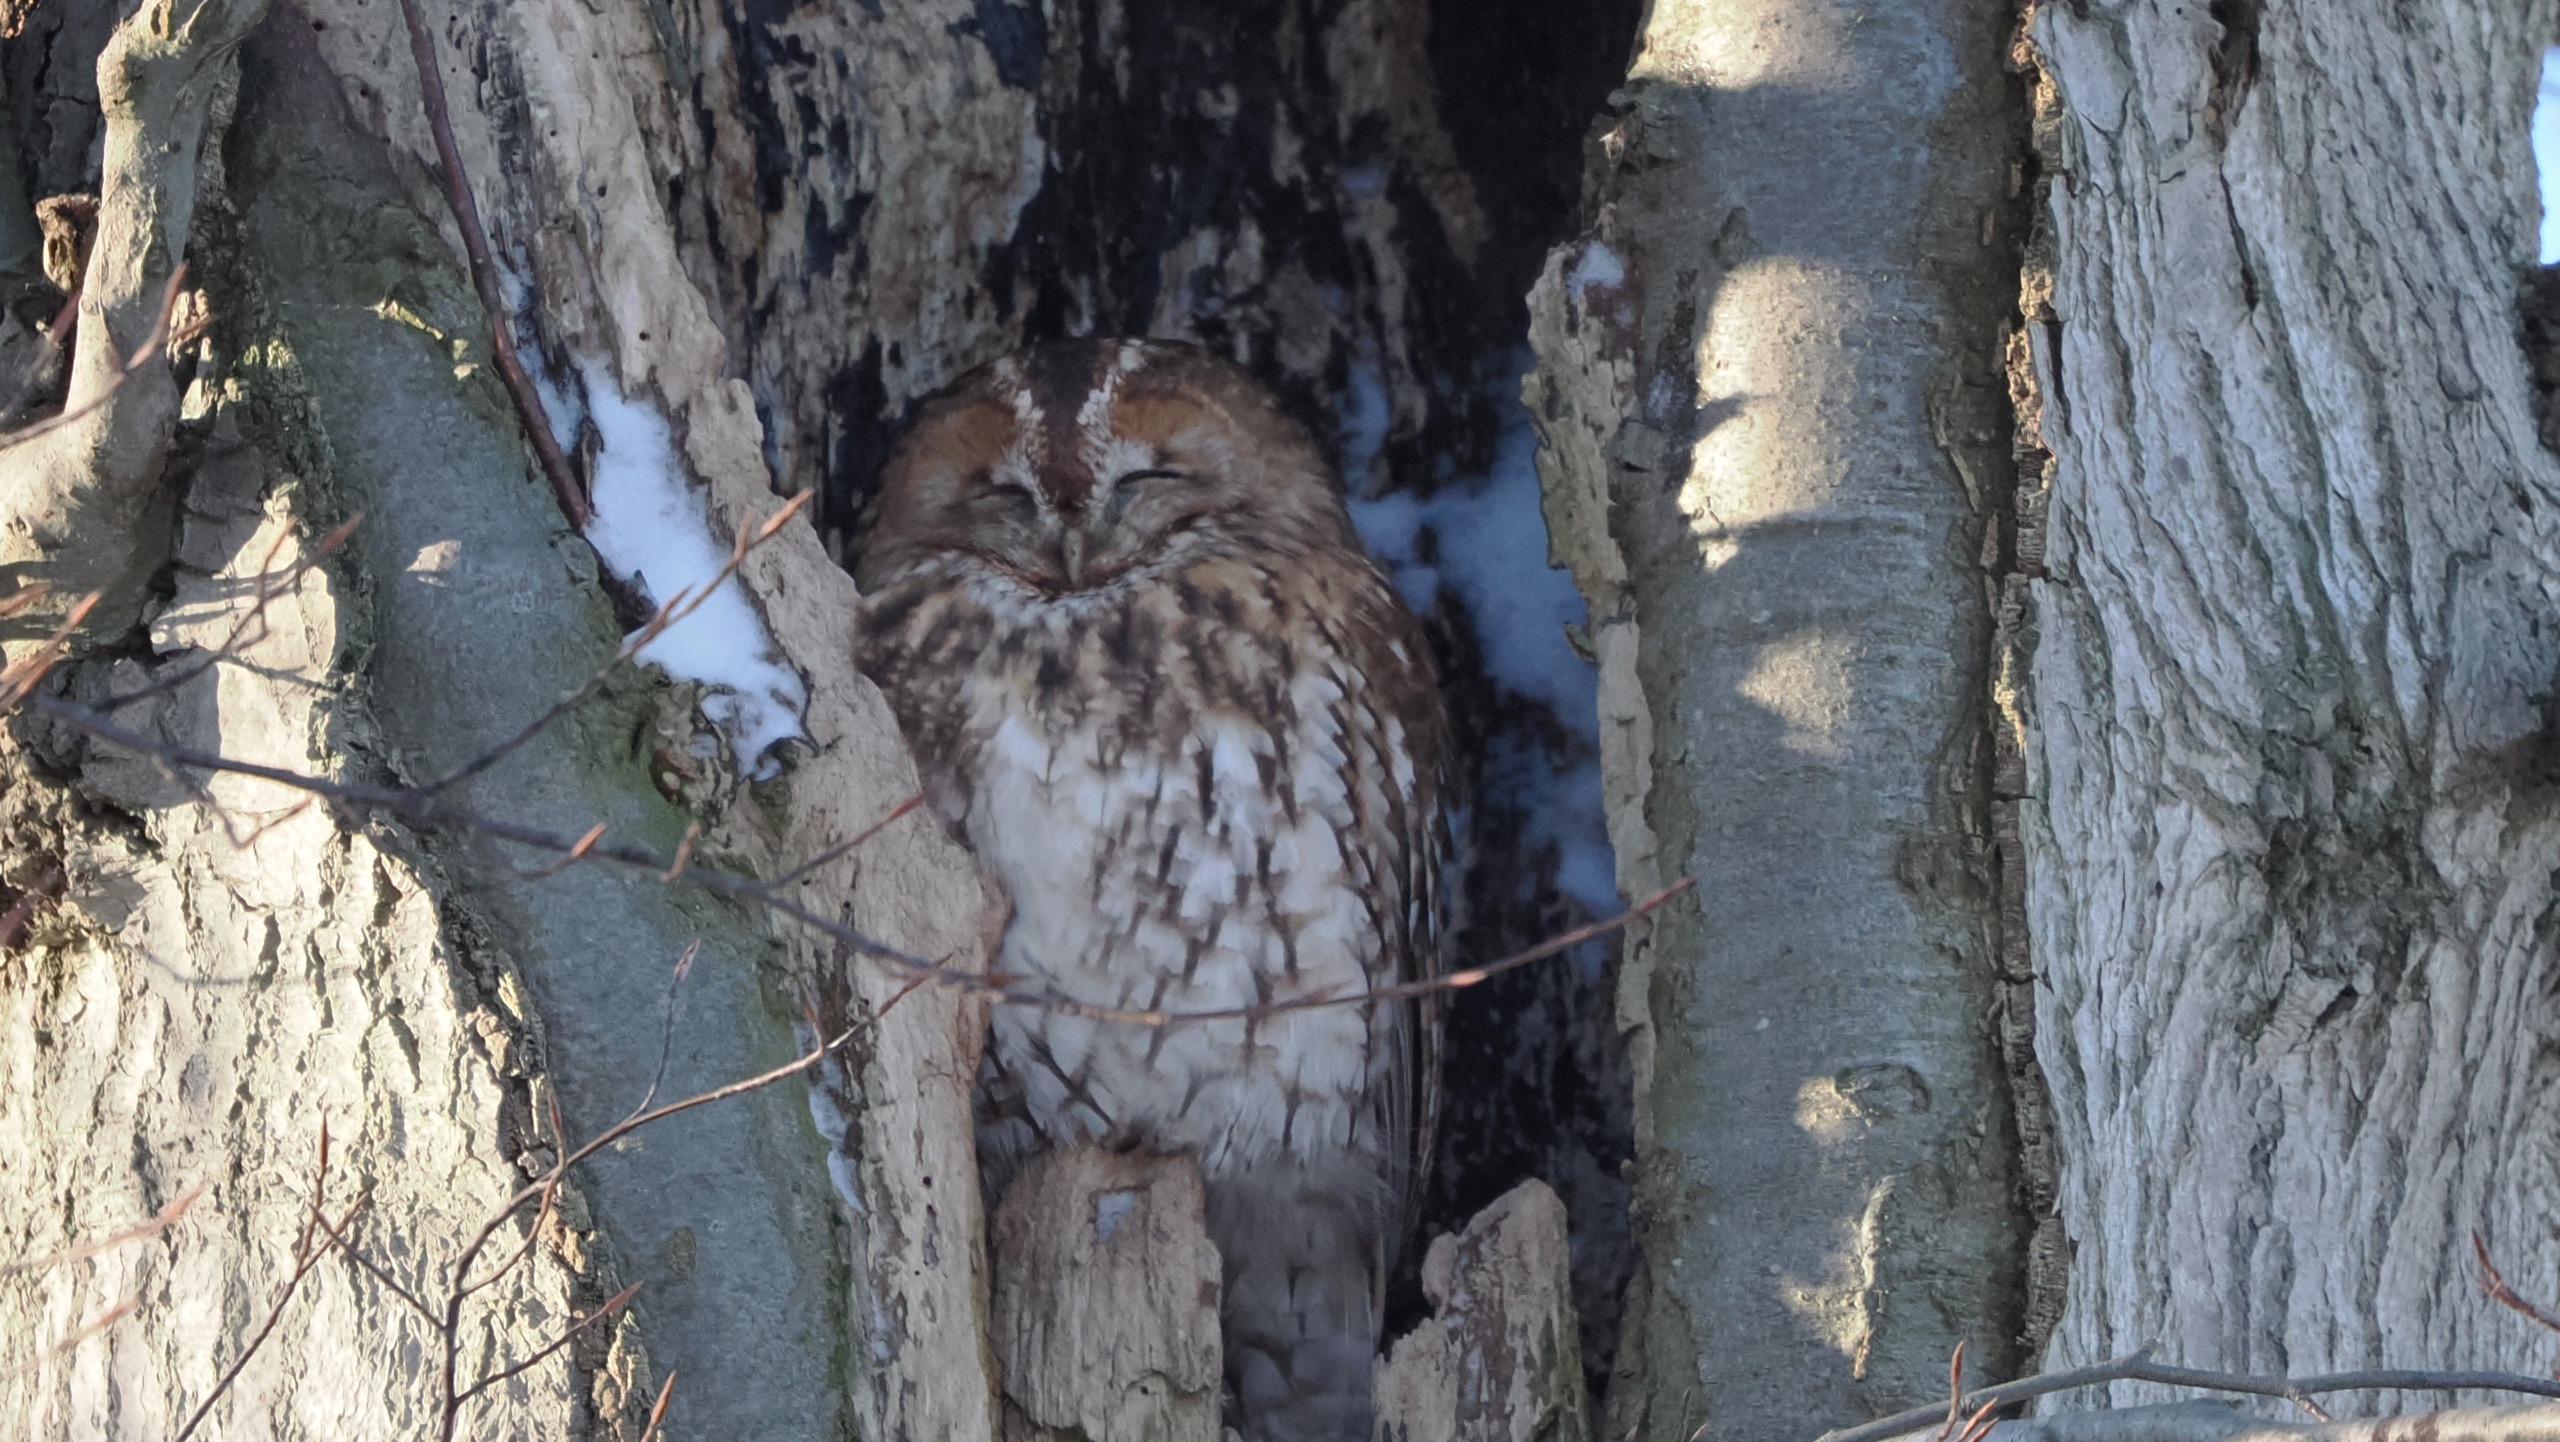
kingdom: Animalia
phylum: Chordata
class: Aves
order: Strigiformes
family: Strigidae
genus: Strix
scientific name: Strix aluco
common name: Natugle
